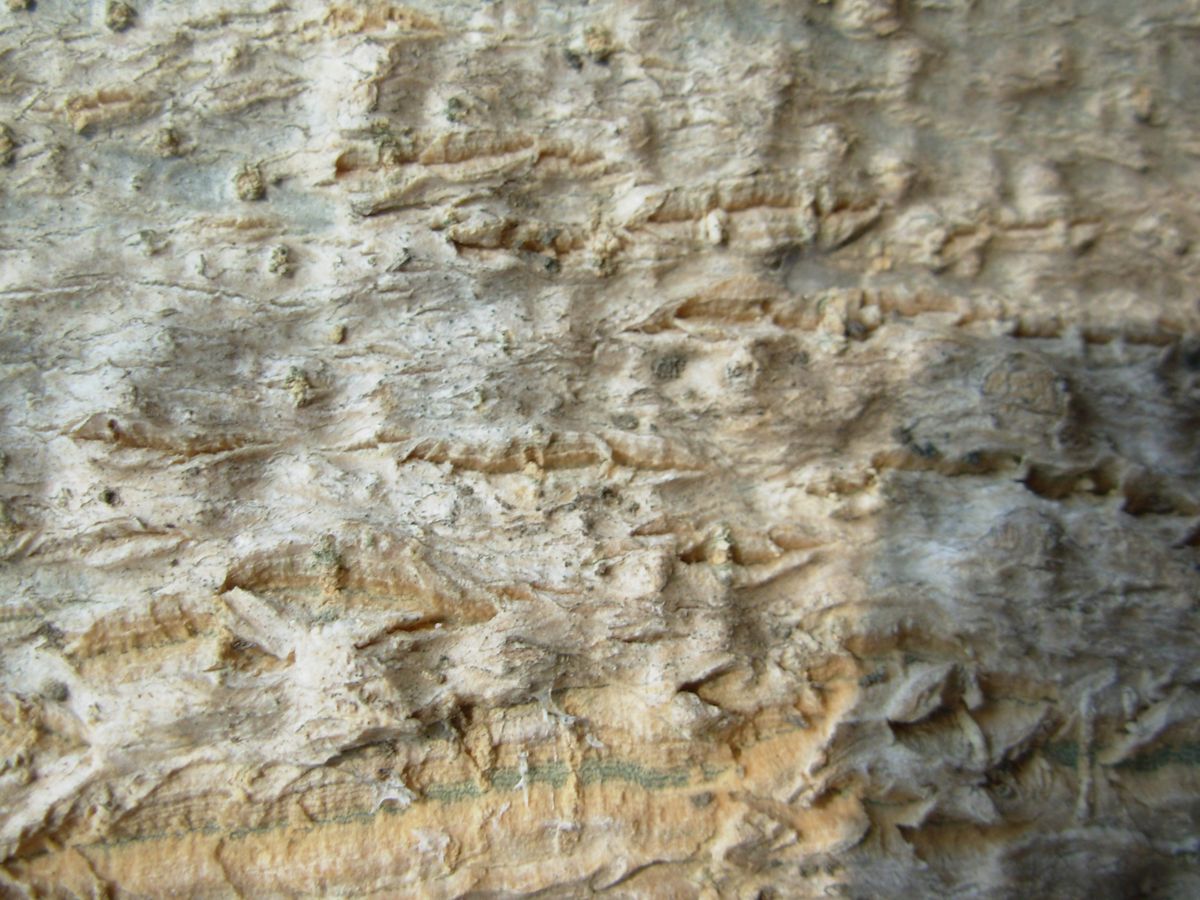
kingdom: Plantae
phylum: Tracheophyta
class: Magnoliopsida
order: Brassicales
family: Moringaceae
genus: Moringa
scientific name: Moringa oleifera
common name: Horseradish-tree
